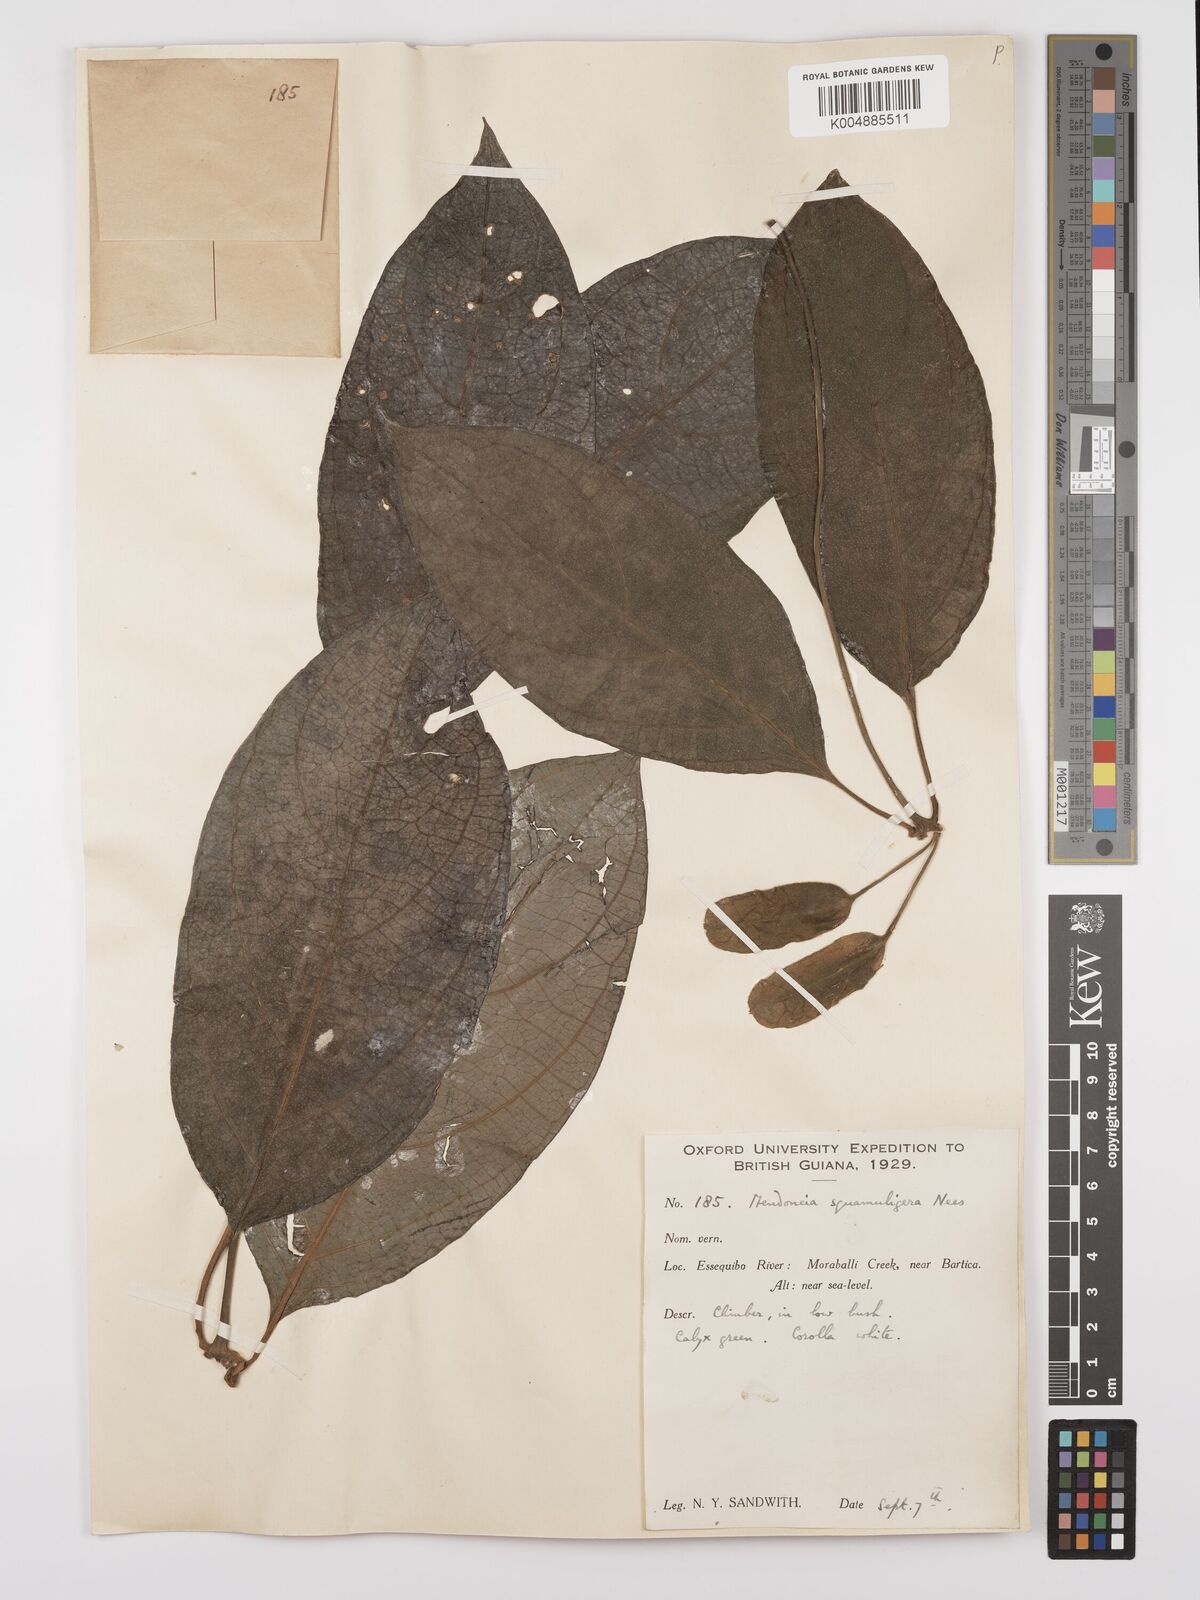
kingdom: Plantae
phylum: Tracheophyta
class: Magnoliopsida
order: Lamiales
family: Acanthaceae
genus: Mendoncia
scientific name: Mendoncia squamuligera
